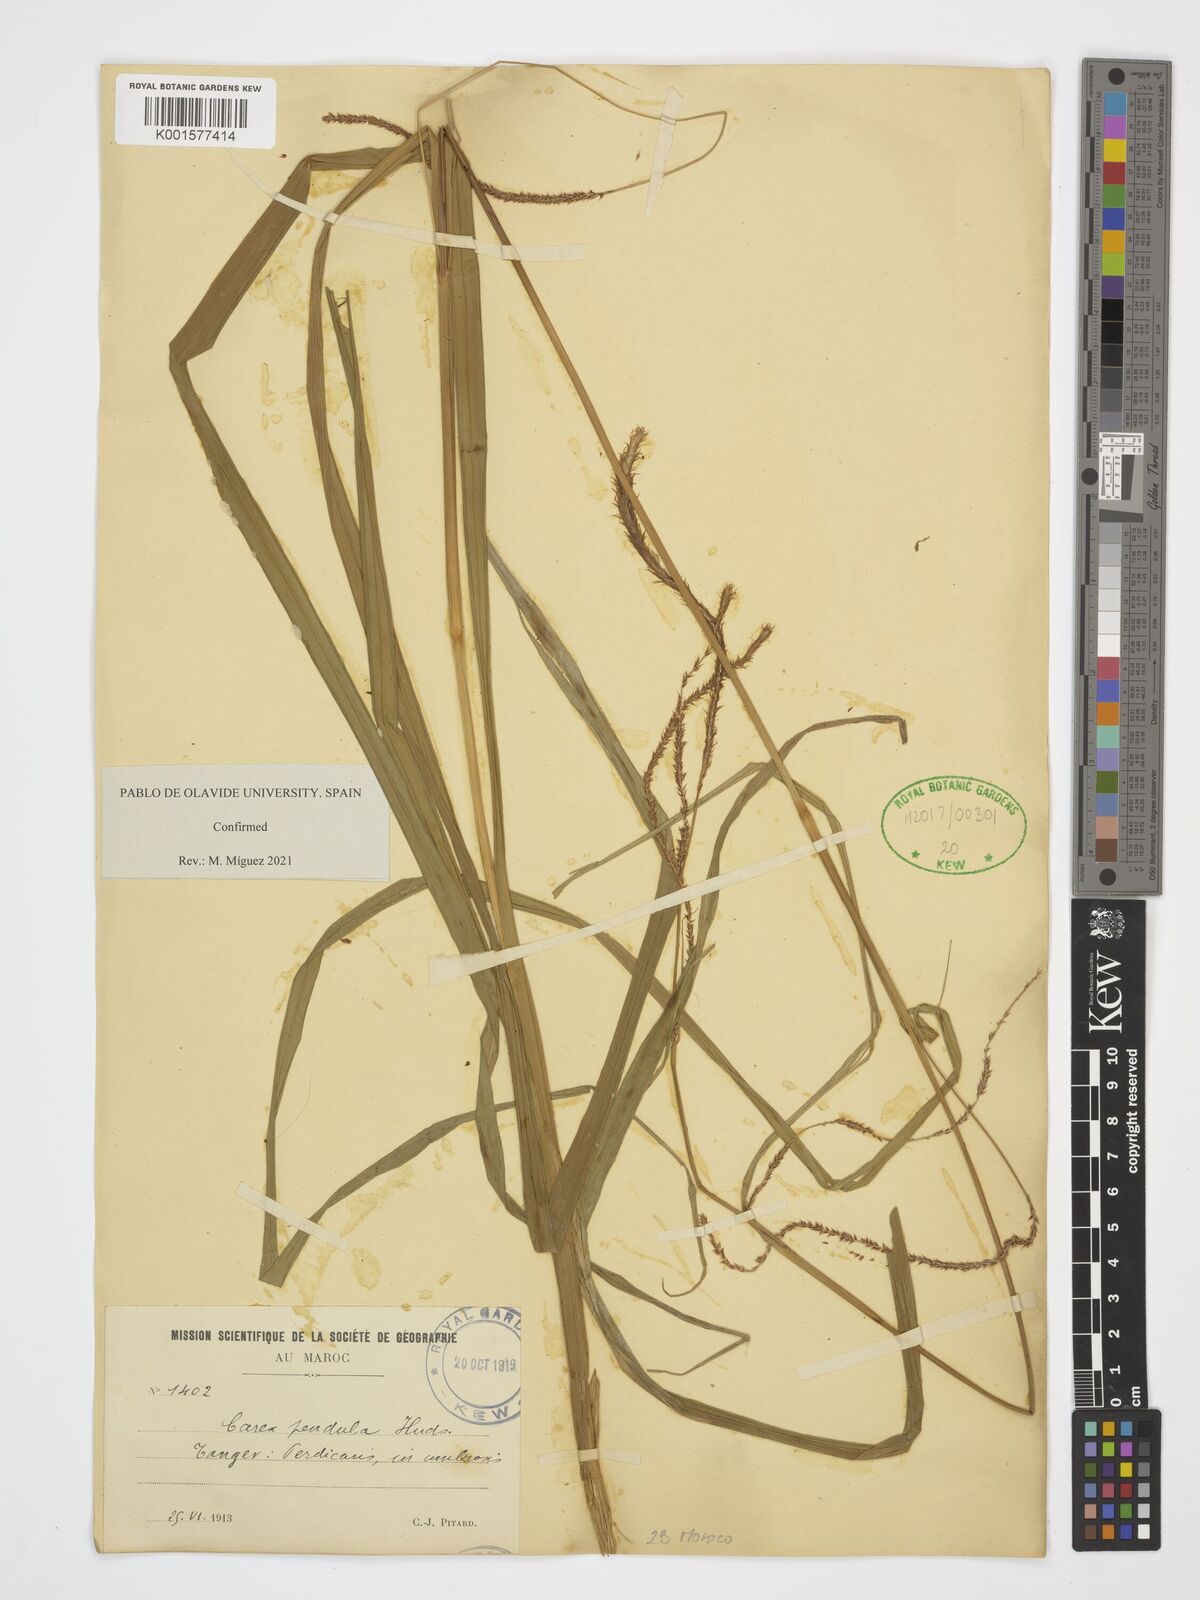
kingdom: Plantae
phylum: Tracheophyta
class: Liliopsida
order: Poales
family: Cyperaceae
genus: Carex
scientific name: Carex pendula
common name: Pendulous sedge
